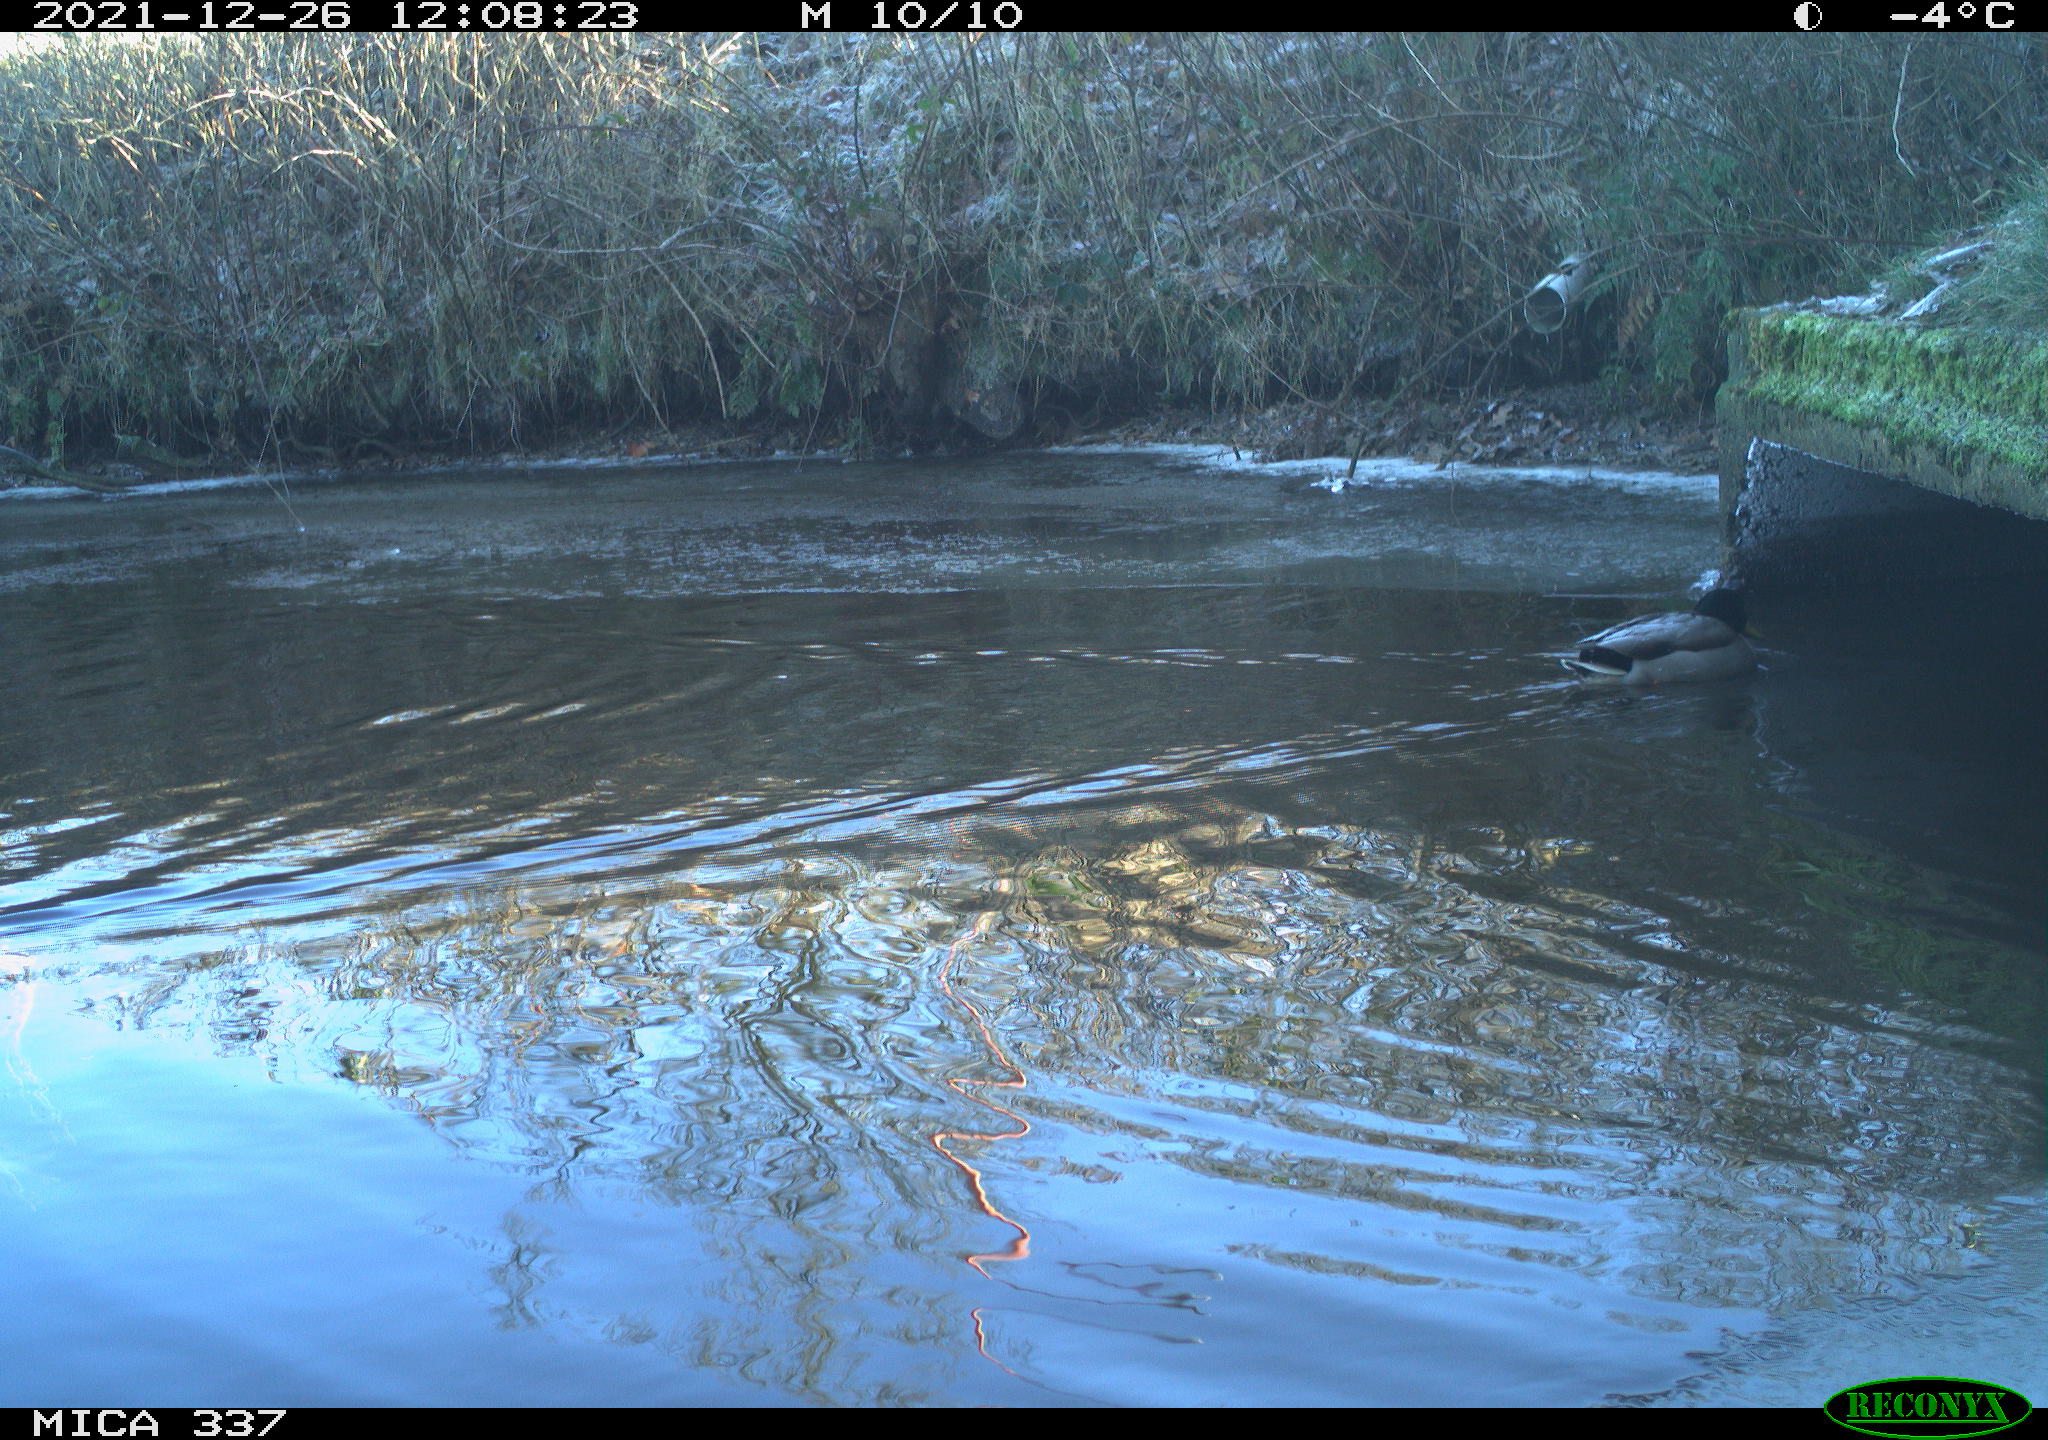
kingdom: Animalia
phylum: Chordata
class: Aves
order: Anseriformes
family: Anatidae
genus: Anas
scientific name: Anas platyrhynchos
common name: Mallard
